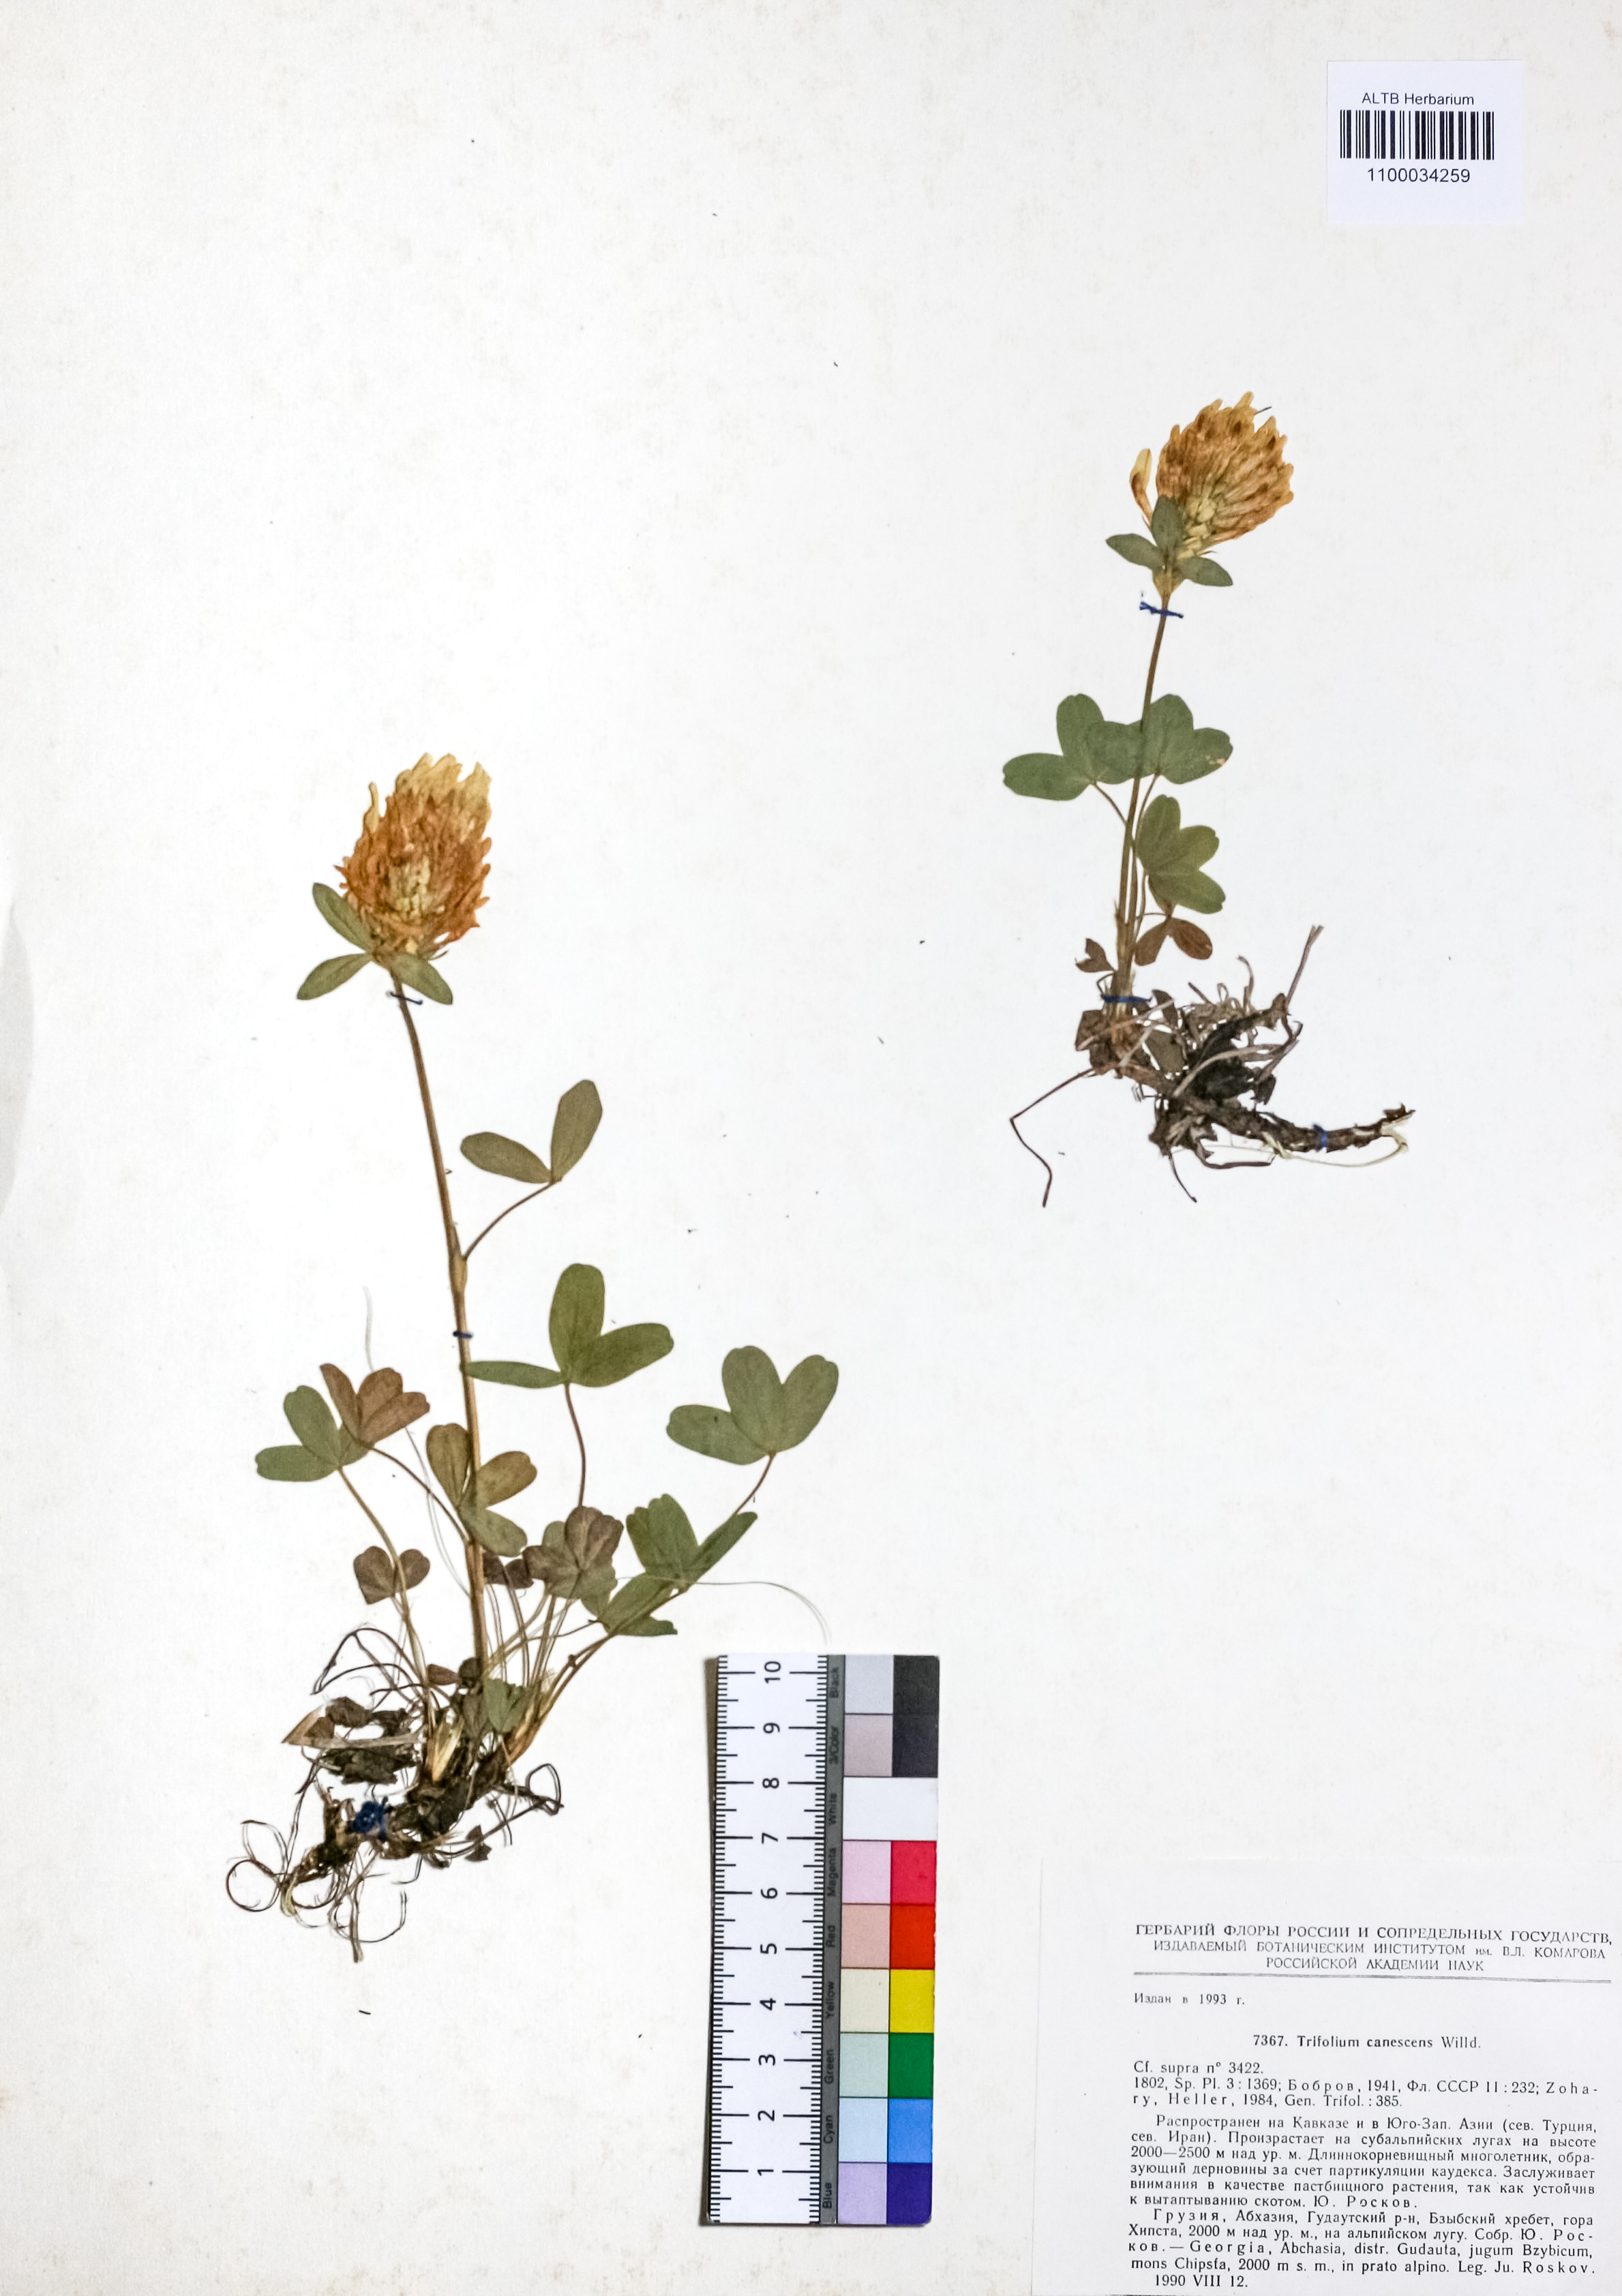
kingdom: Plantae
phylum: Tracheophyta
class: Magnoliopsida
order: Fabales
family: Fabaceae
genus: Trifolium
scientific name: Trifolium canescens
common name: Graying clover
